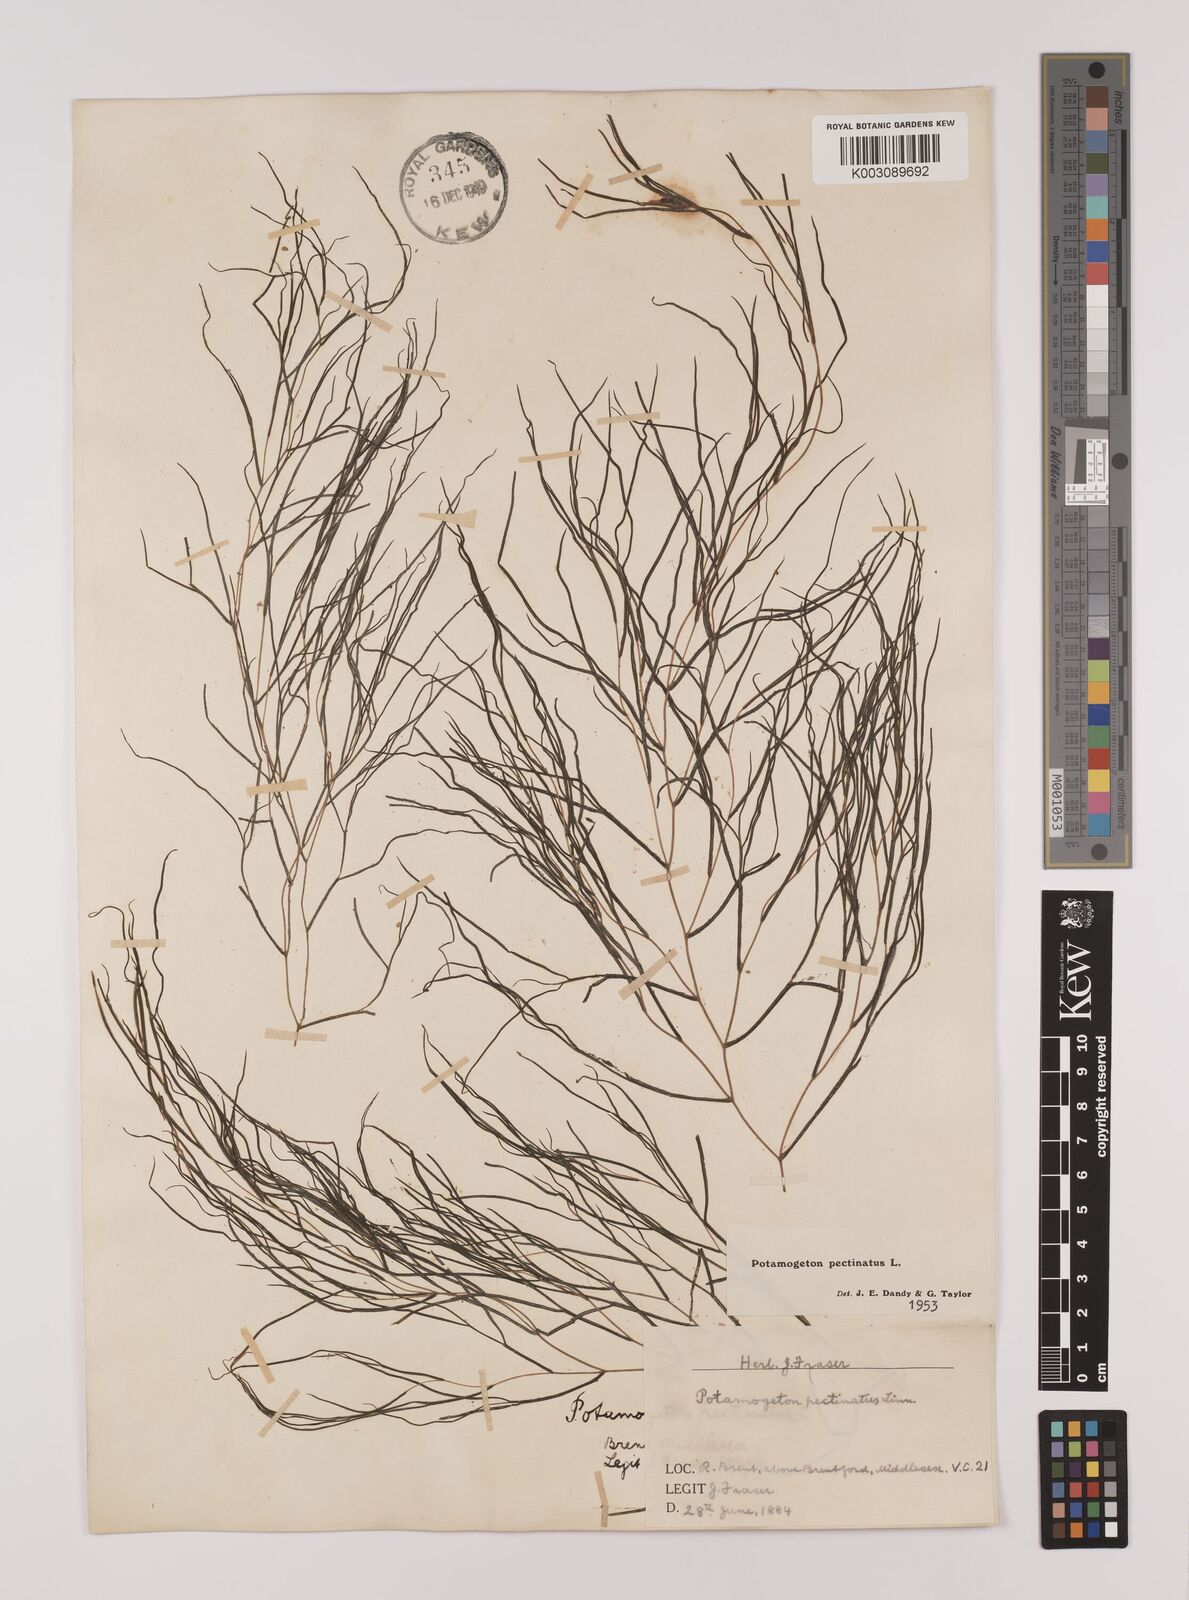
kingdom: Plantae
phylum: Tracheophyta
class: Liliopsida
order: Alismatales
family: Potamogetonaceae
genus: Stuckenia
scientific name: Stuckenia pectinata
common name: Sago pondweed
